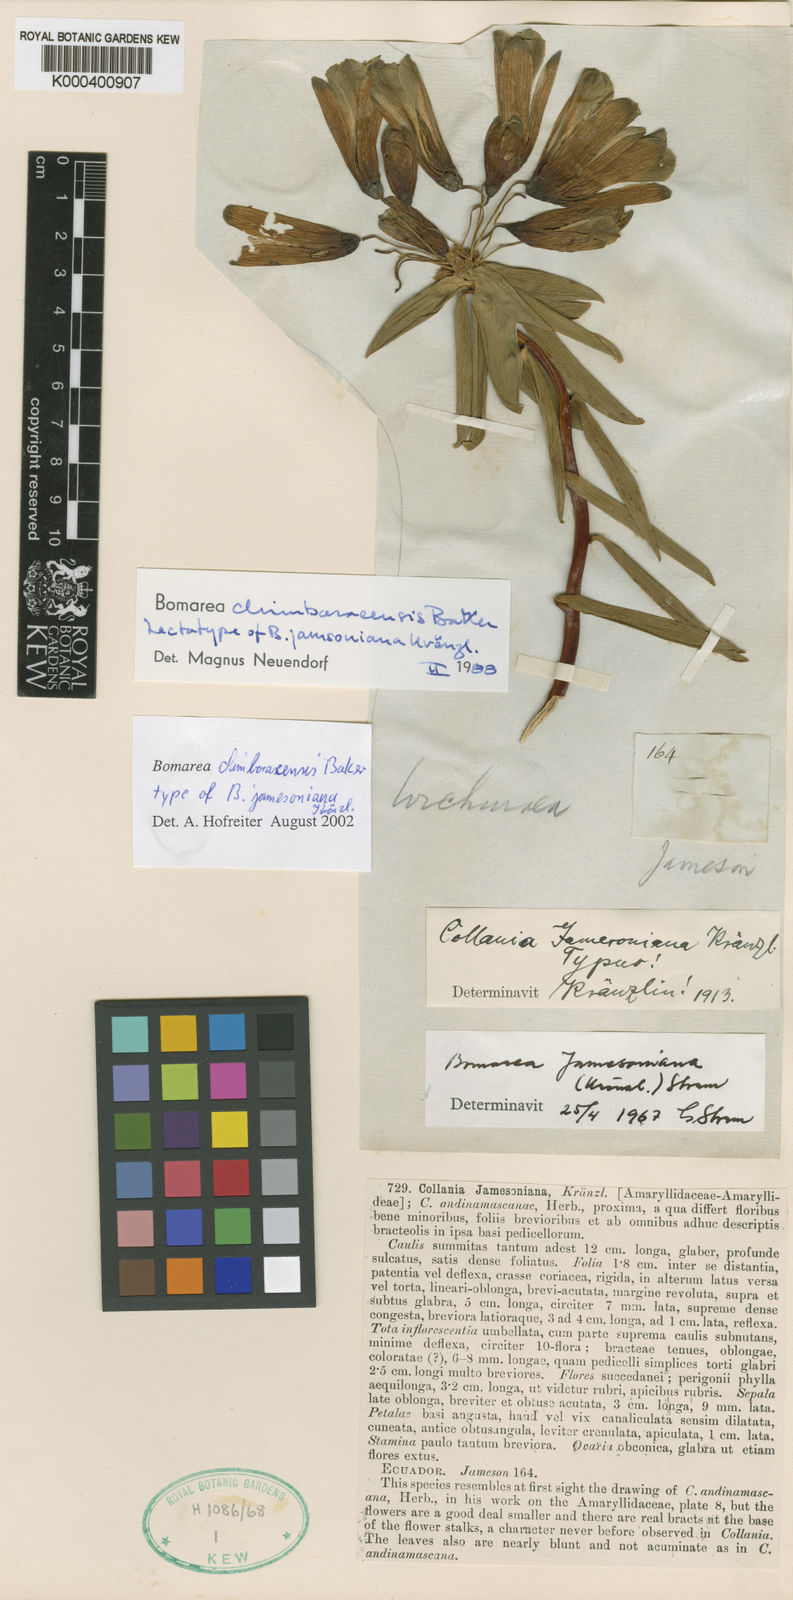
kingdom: Plantae
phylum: Tracheophyta
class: Liliopsida
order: Liliales
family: Alstroemeriaceae
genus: Bomarea
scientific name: Bomarea chimboracensis
